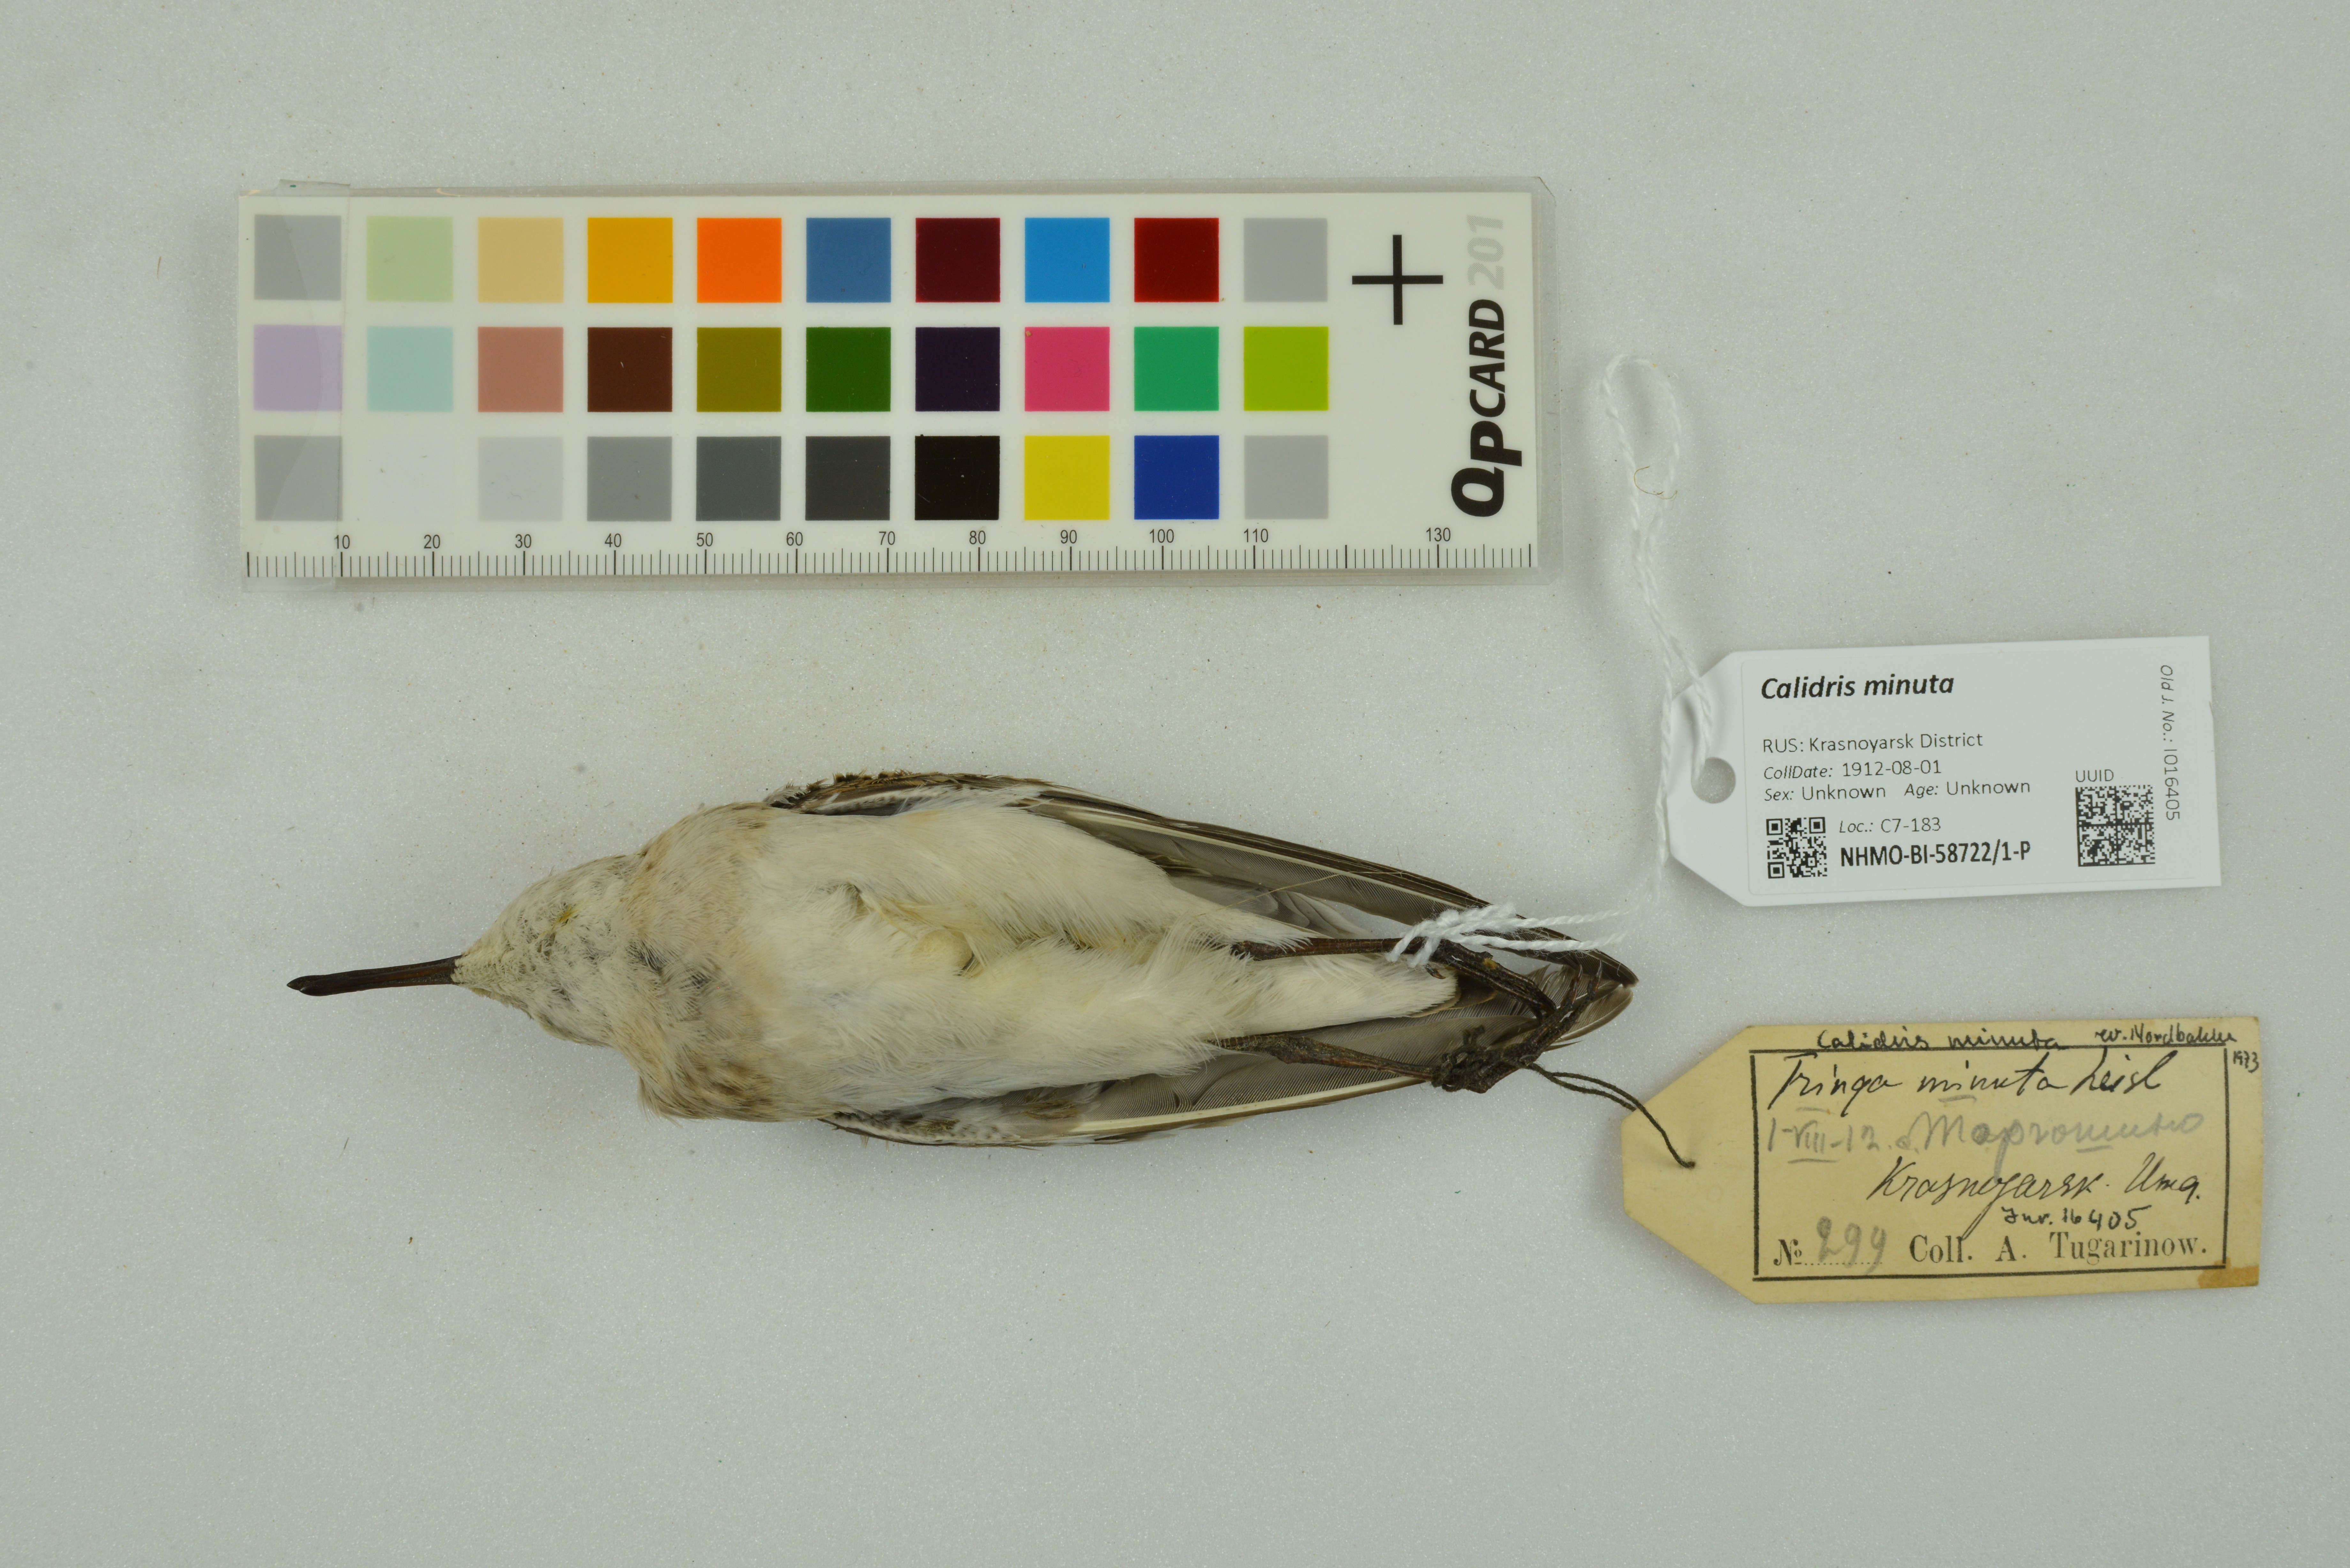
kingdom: Animalia
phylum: Chordata
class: Aves
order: Charadriiformes
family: Scolopacidae
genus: Calidris
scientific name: Calidris minuta
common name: Little stint
